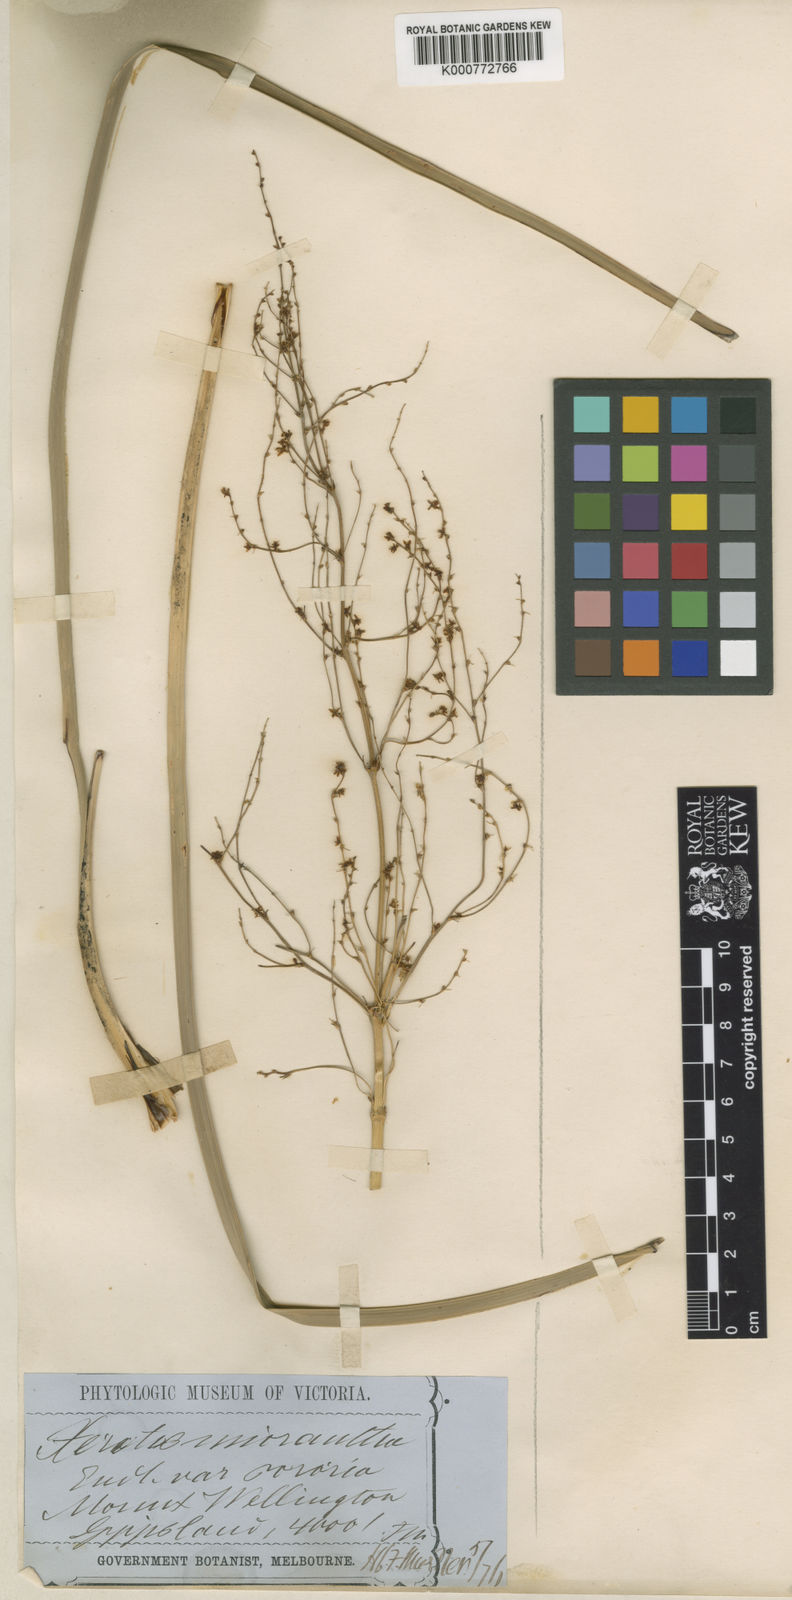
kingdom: Plantae
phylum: Tracheophyta
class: Liliopsida
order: Asparagales
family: Asparagaceae
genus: Lomandra
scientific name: Lomandra micrantha
